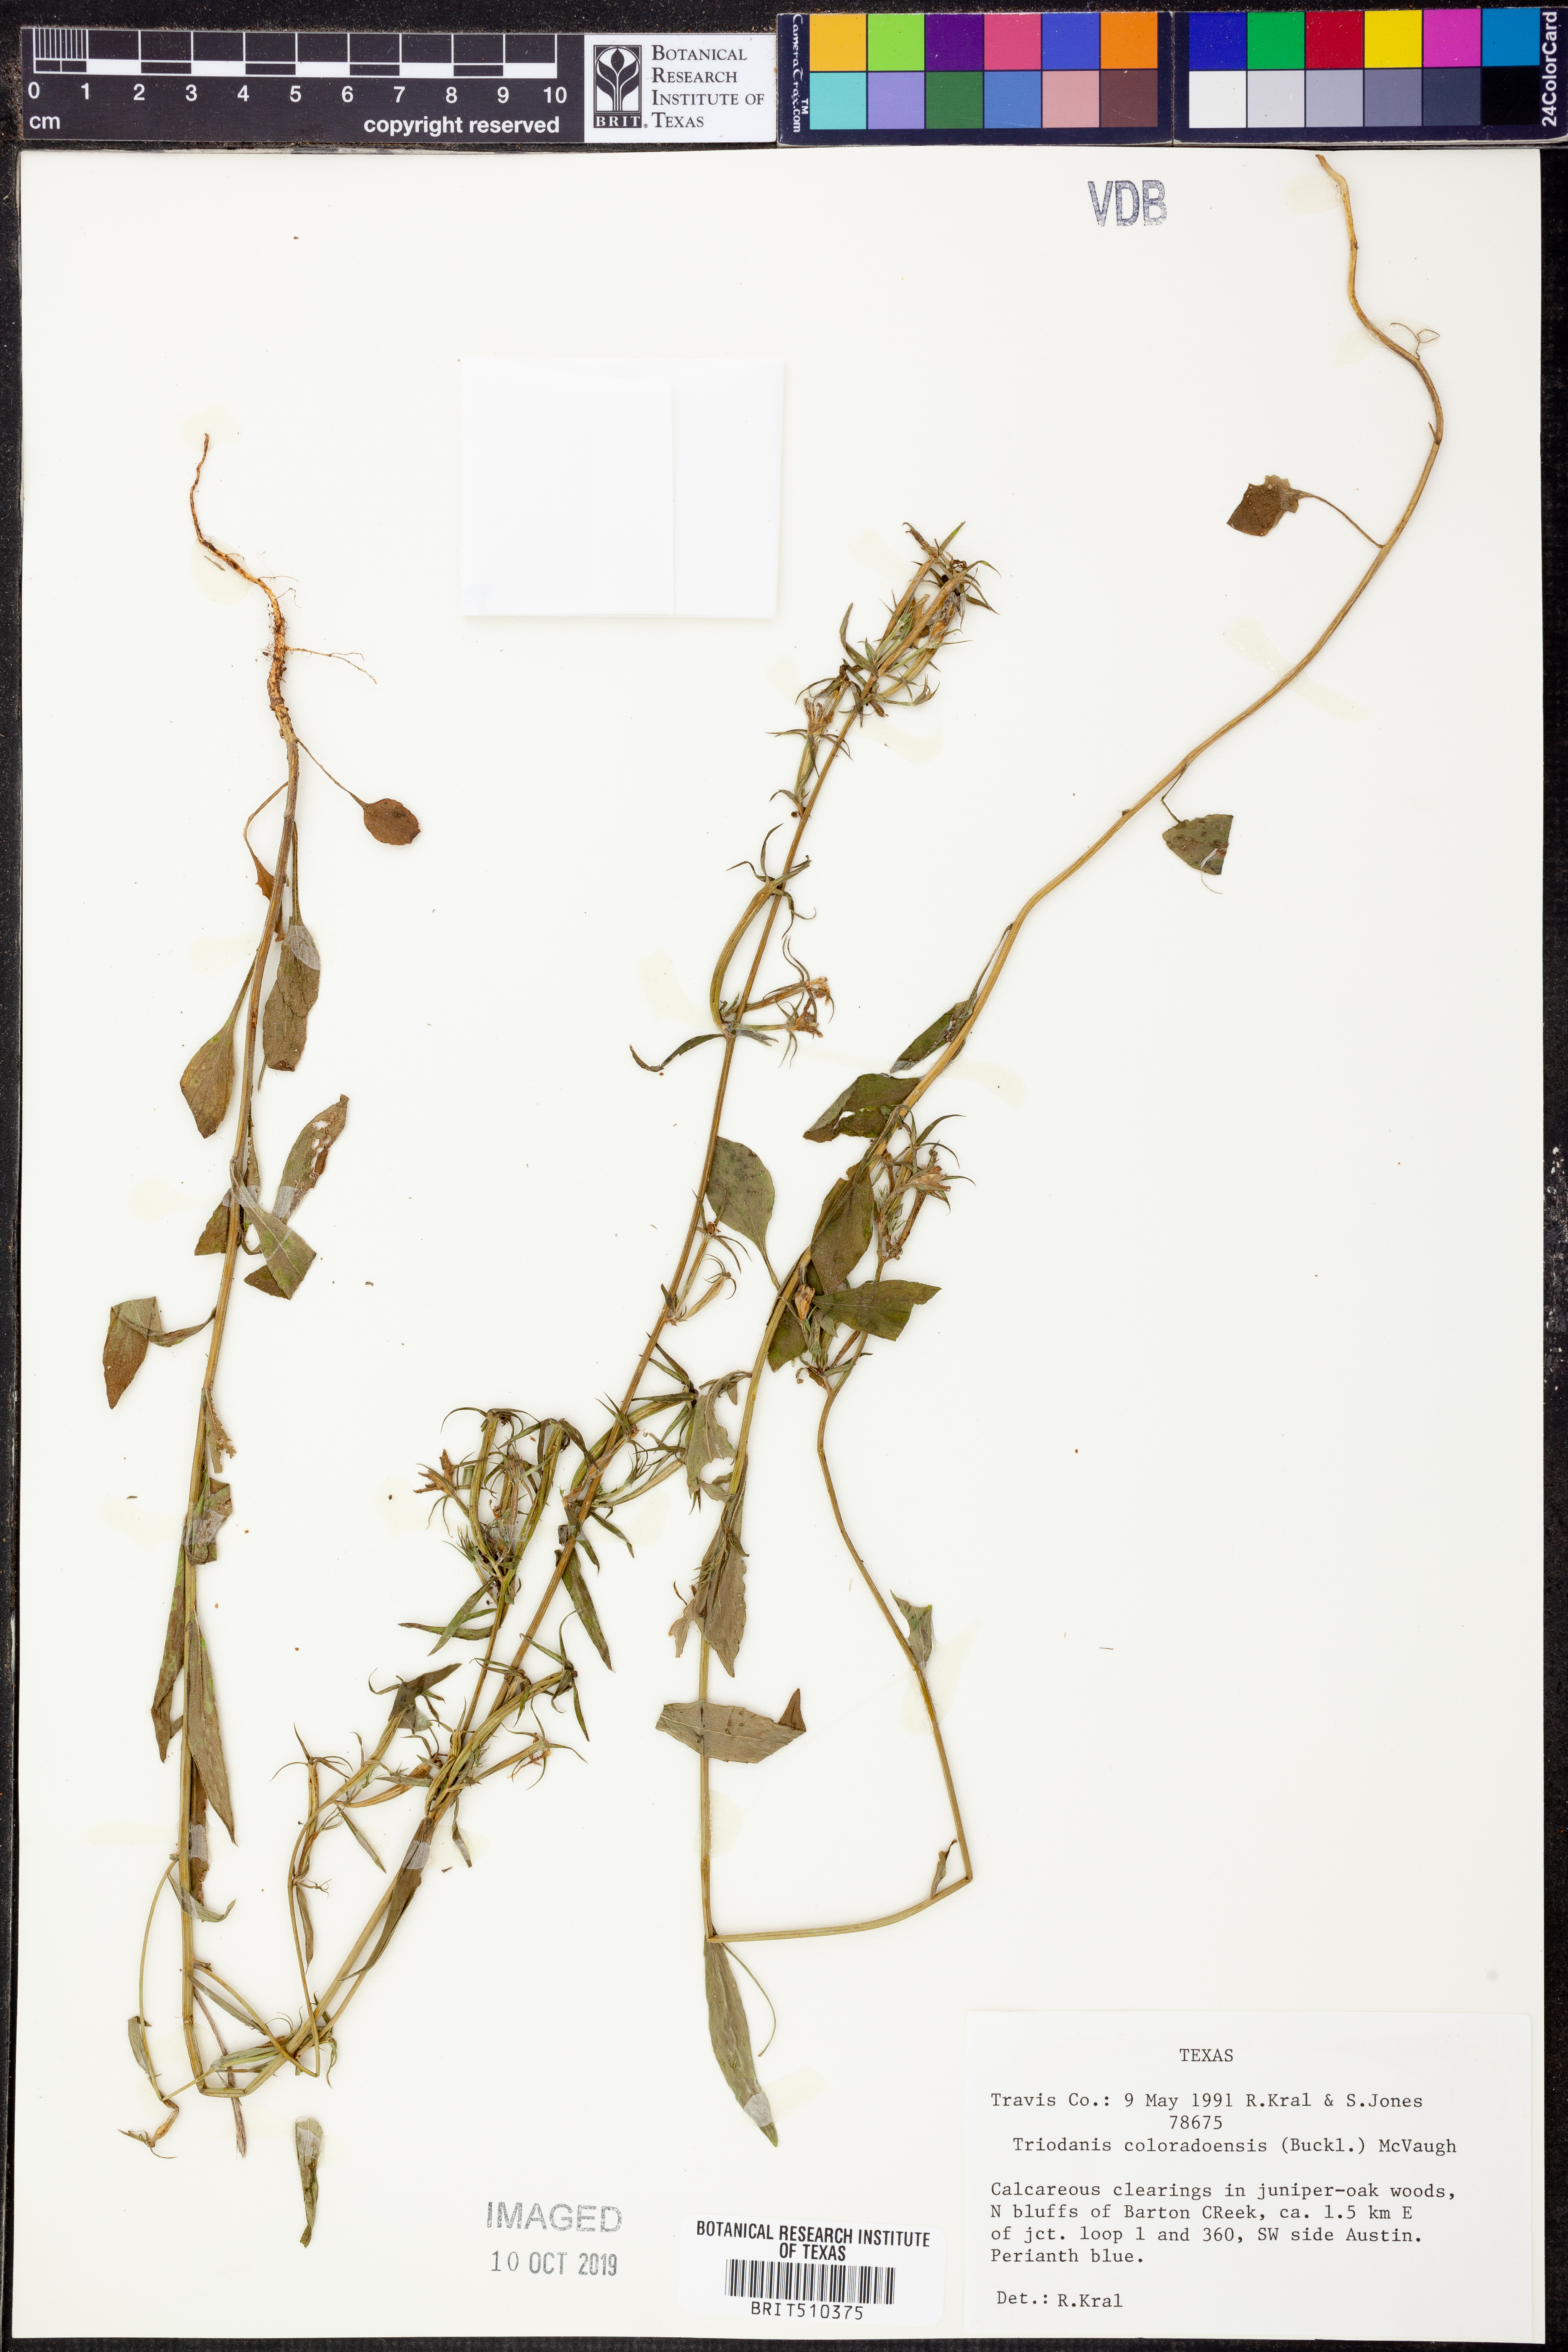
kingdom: Plantae
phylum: Tracheophyta
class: Magnoliopsida
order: Asterales
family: Campanulaceae
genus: Triodanis
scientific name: Triodanis coloradoensis
